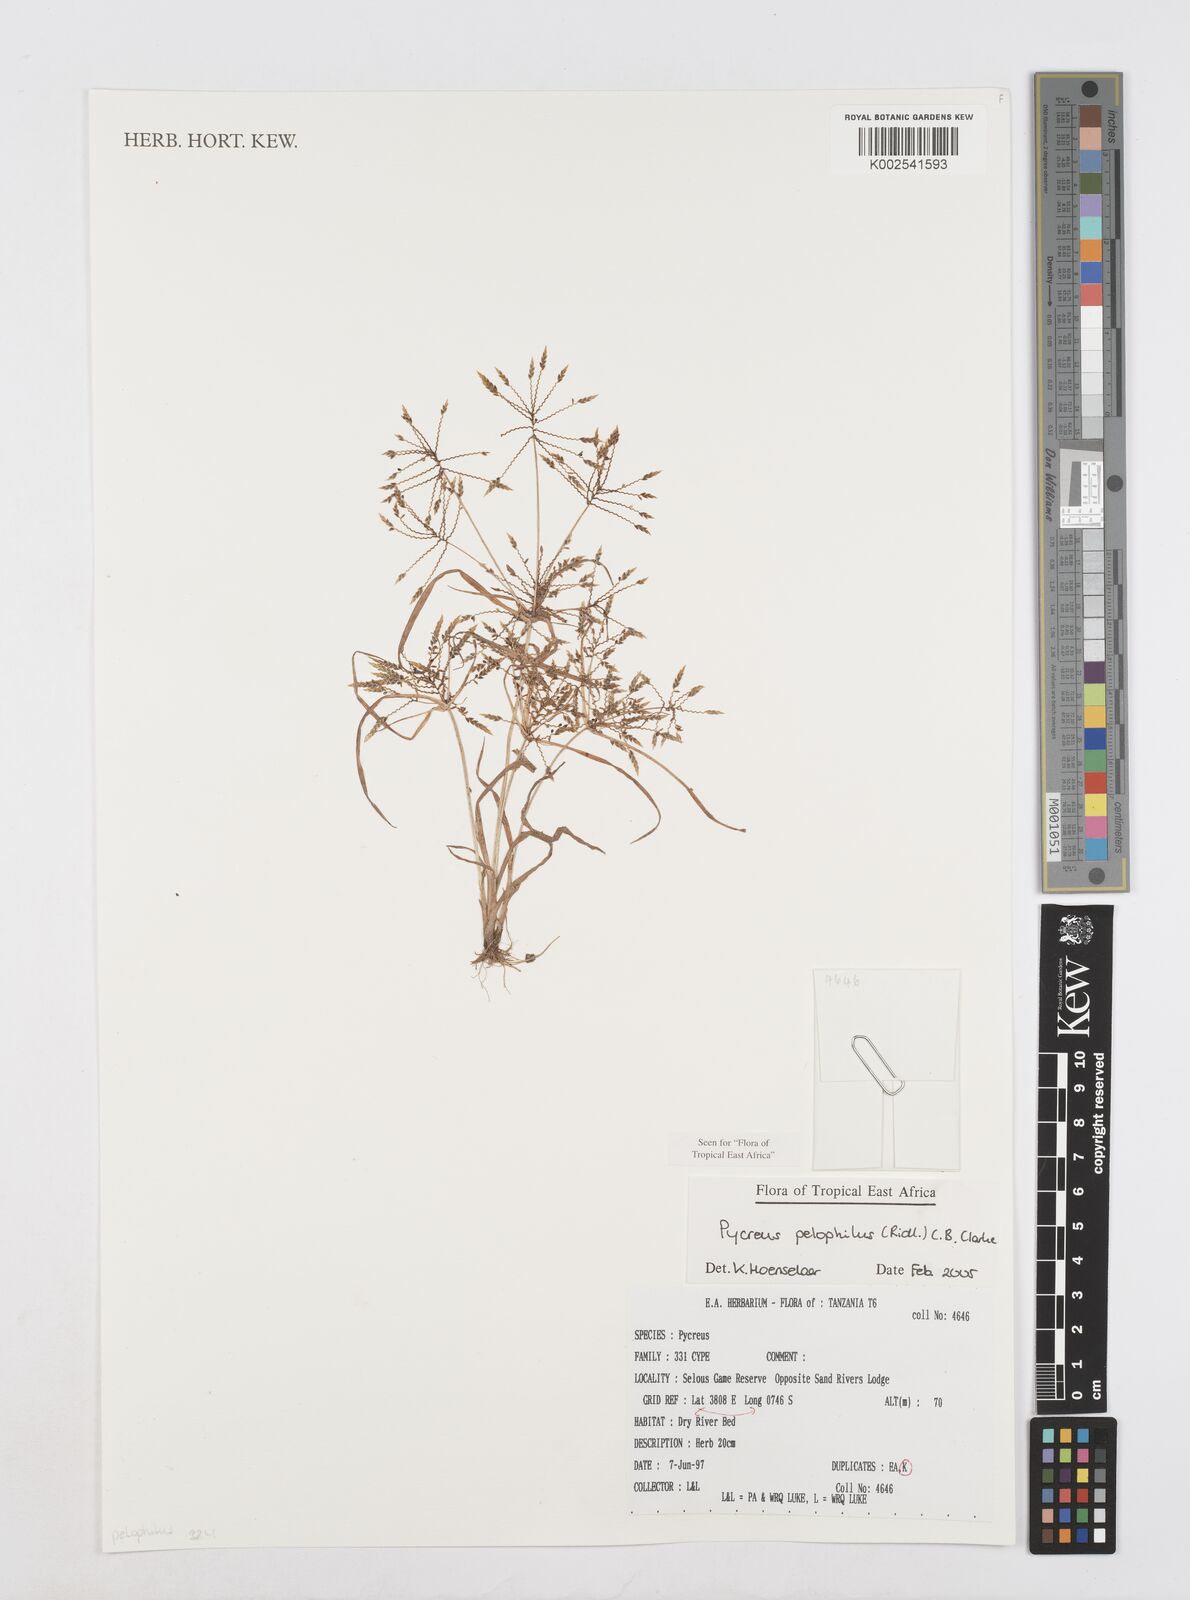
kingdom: Plantae
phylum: Tracheophyta
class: Liliopsida
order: Poales
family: Cyperaceae
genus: Cyperus
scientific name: Cyperus pelophilus
